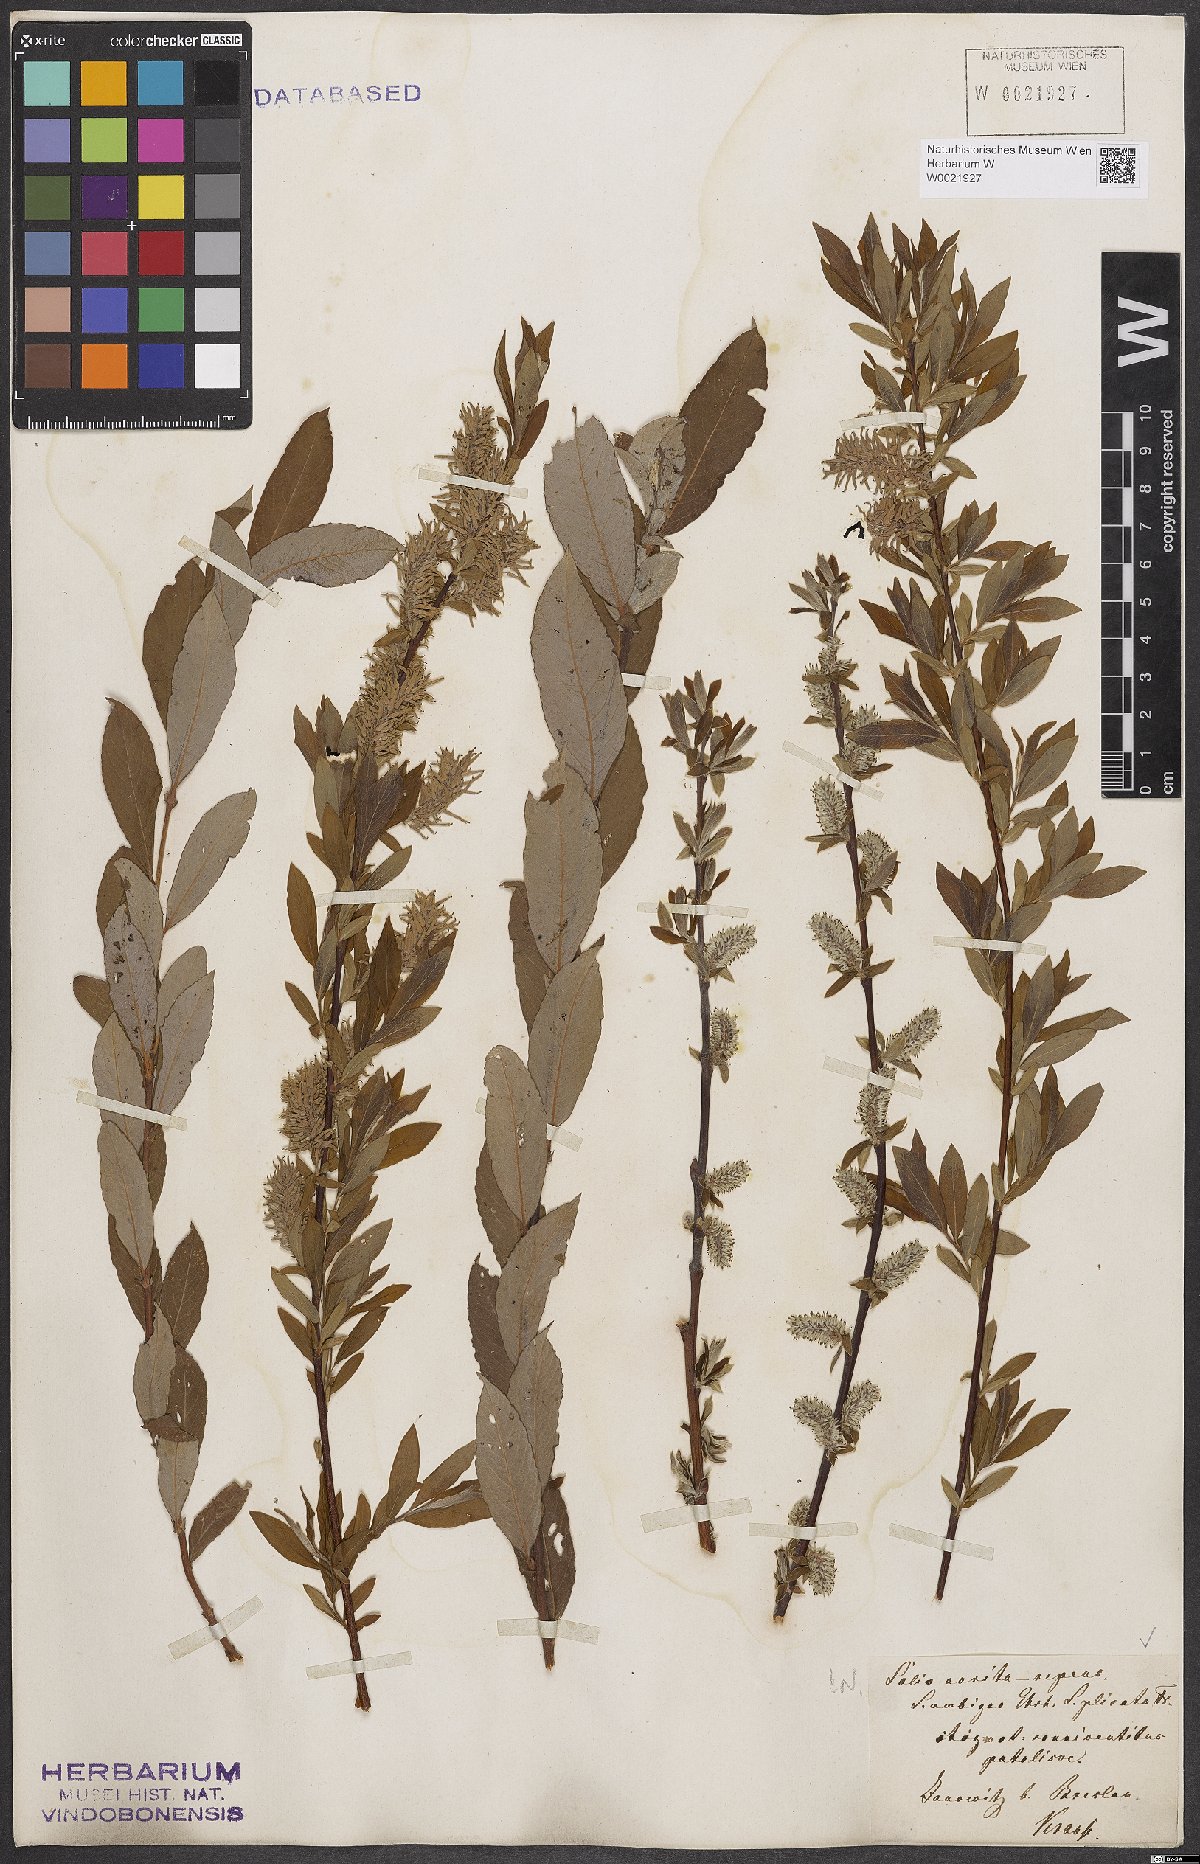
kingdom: Plantae
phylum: Tracheophyta
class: Magnoliopsida
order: Malpighiales
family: Salicaceae
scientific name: Salicaceae
